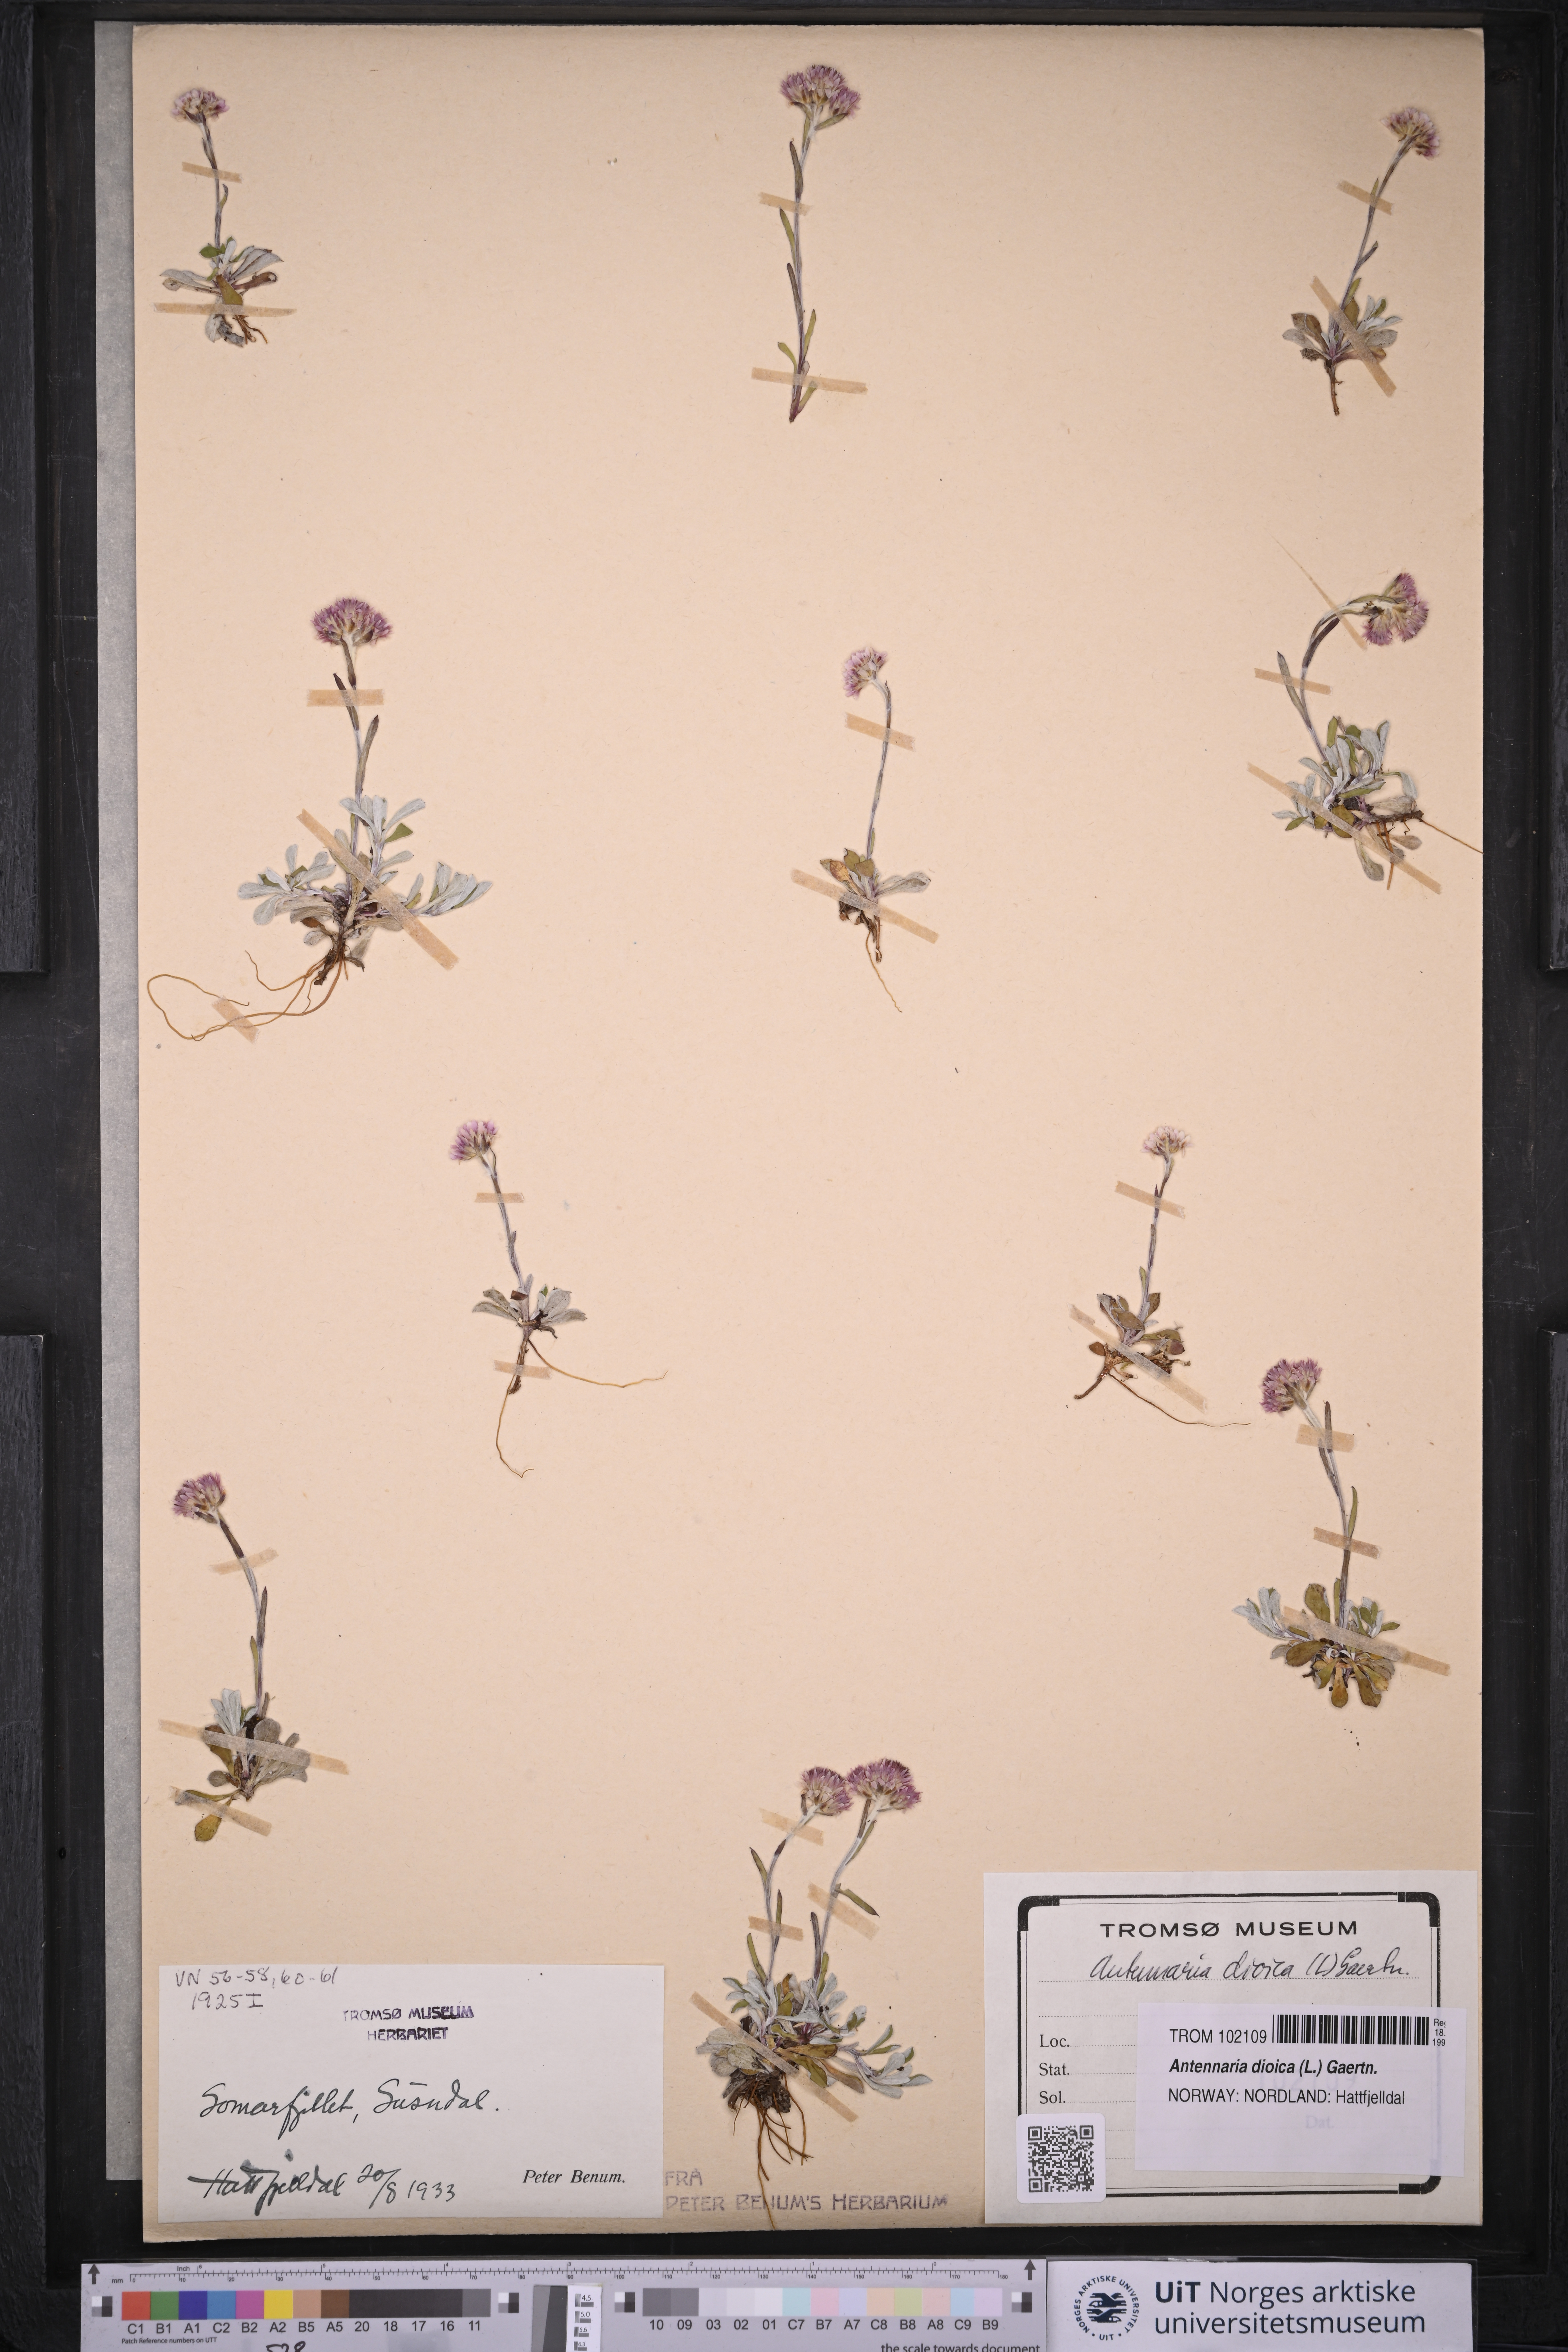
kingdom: Plantae
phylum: Tracheophyta
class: Magnoliopsida
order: Asterales
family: Asteraceae
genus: Antennaria
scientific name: Antennaria dioica
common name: Mountain everlasting
